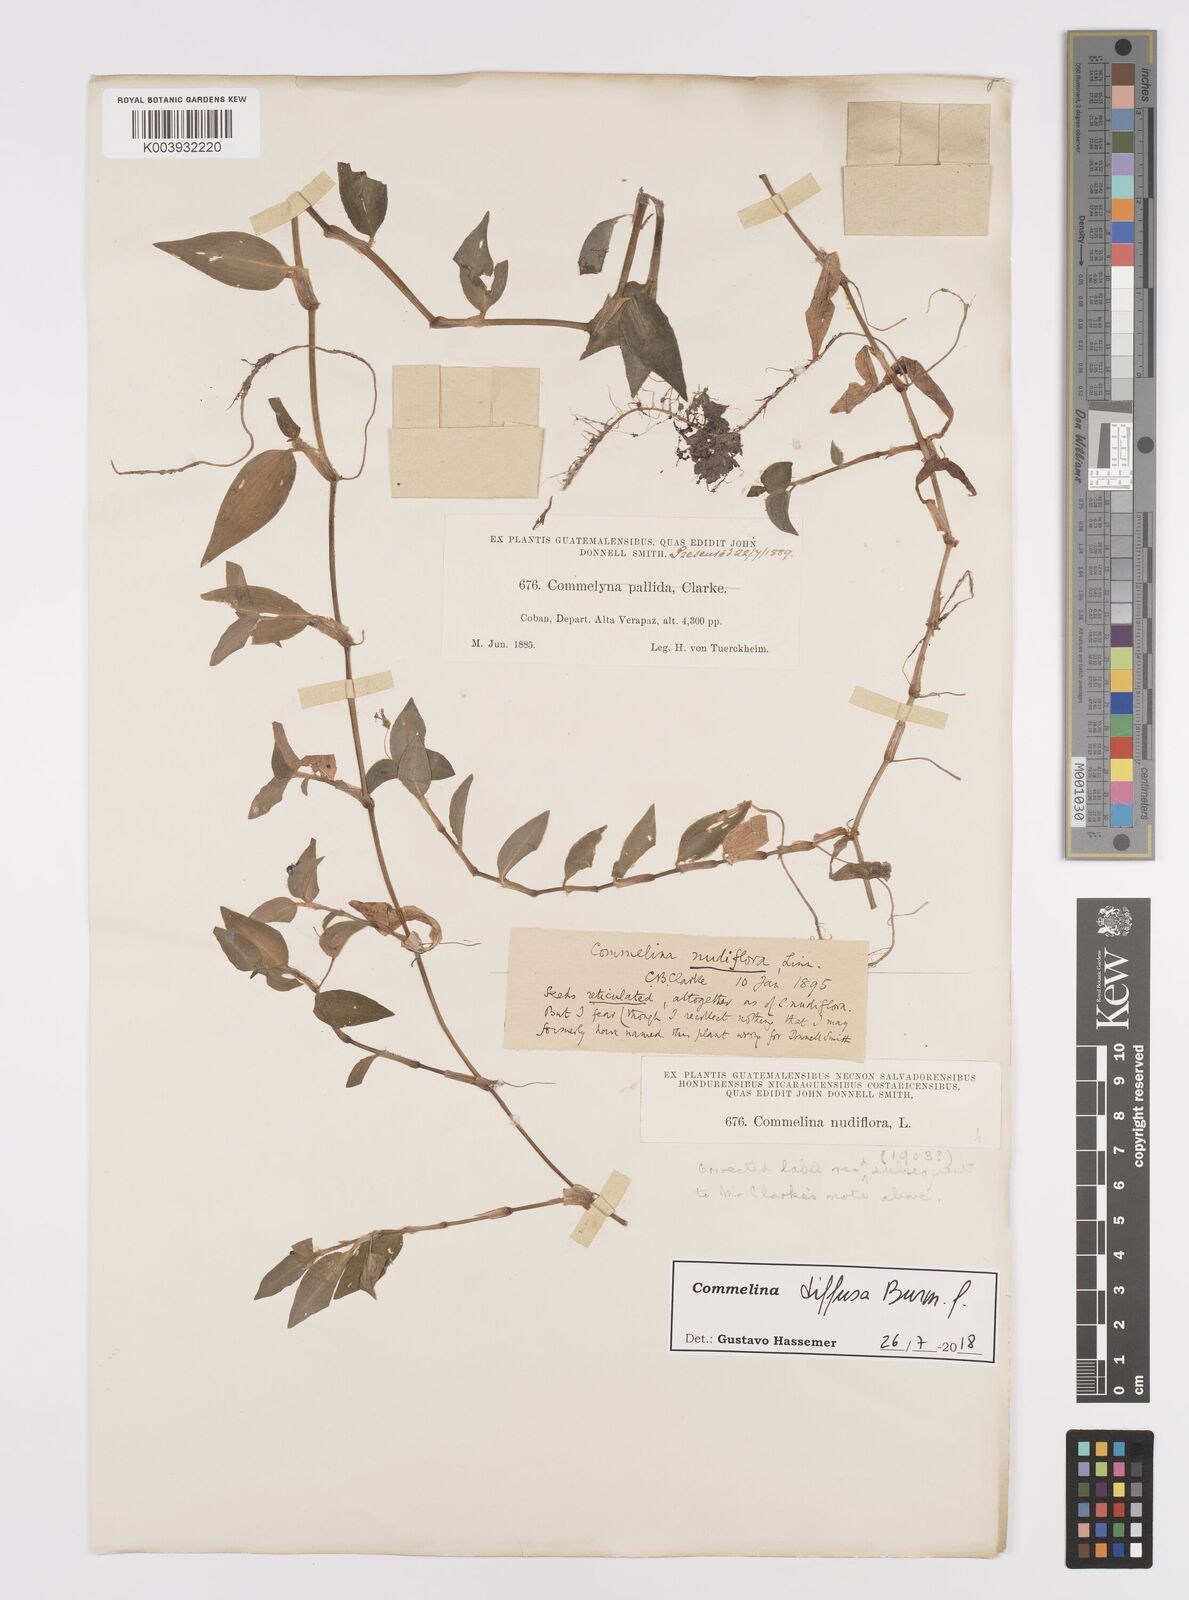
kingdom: Plantae
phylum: Tracheophyta
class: Liliopsida
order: Commelinales
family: Commelinaceae
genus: Commelina
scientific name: Commelina diffusa
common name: Climbing dayflower
